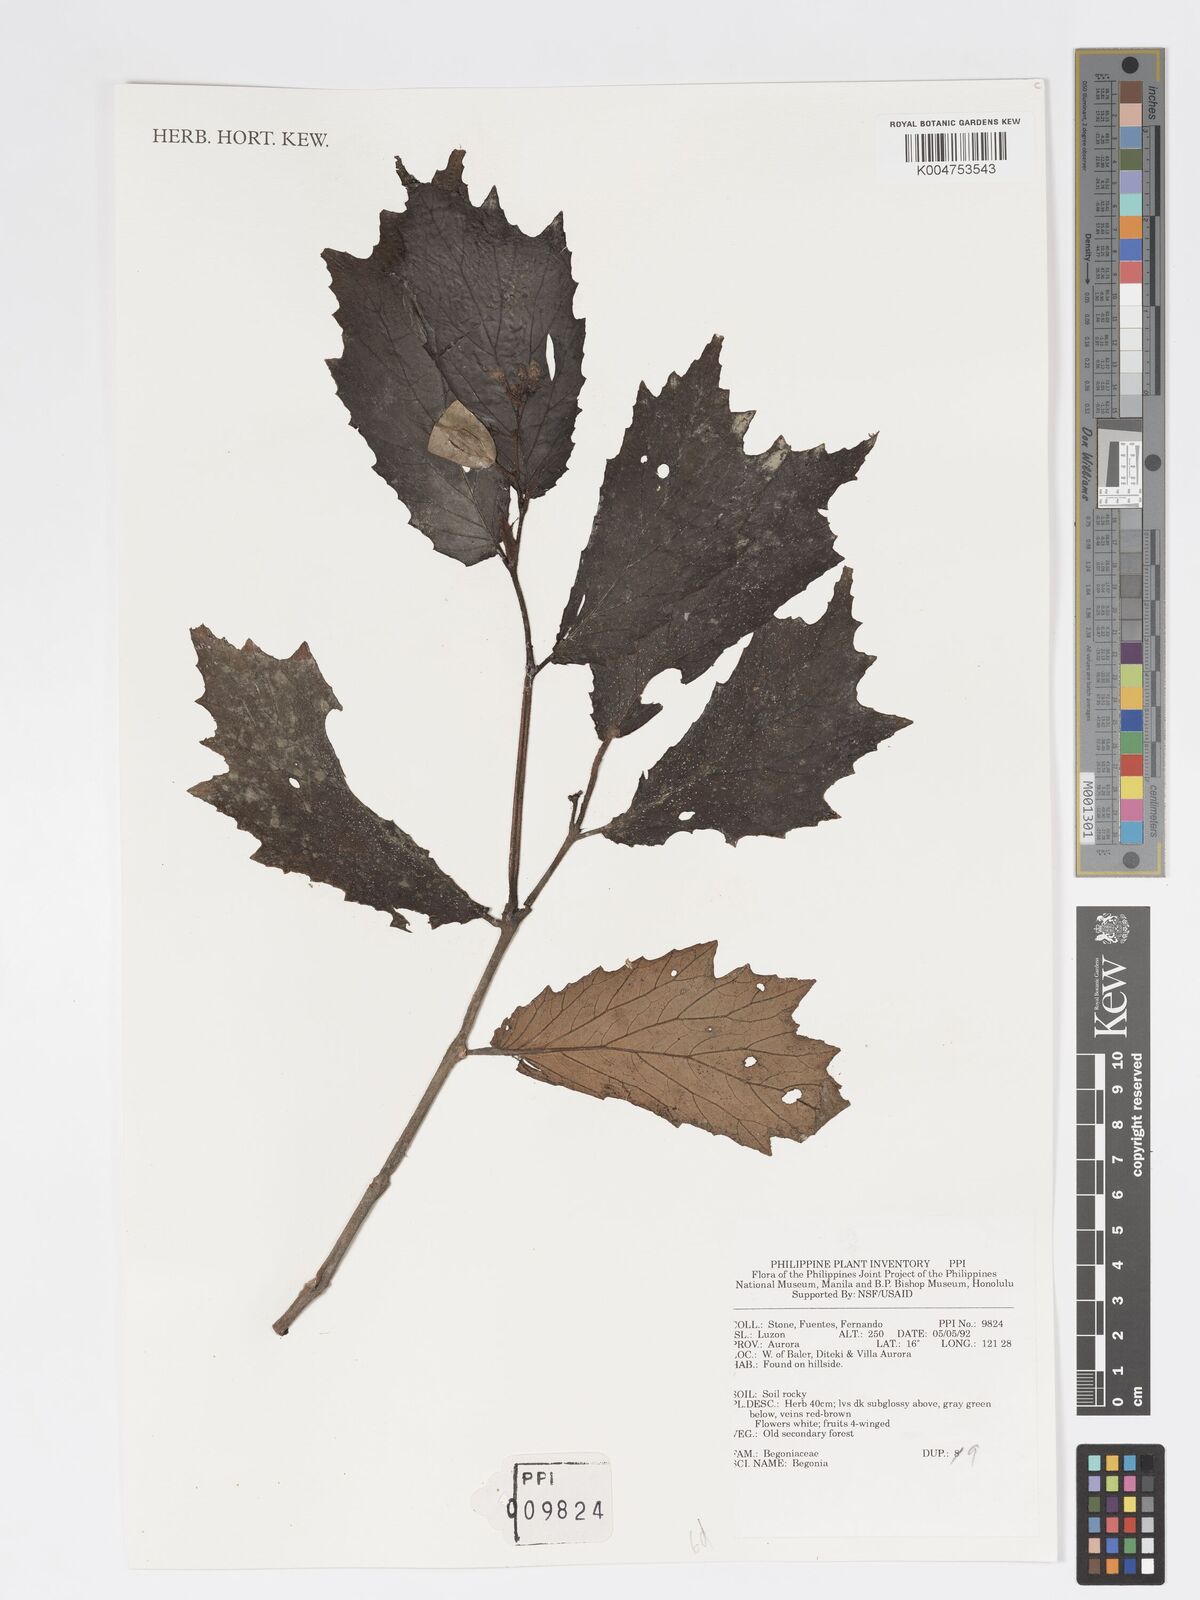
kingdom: Plantae
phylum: Tracheophyta
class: Magnoliopsida
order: Cucurbitales
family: Begoniaceae
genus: Begonia
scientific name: Begonia
